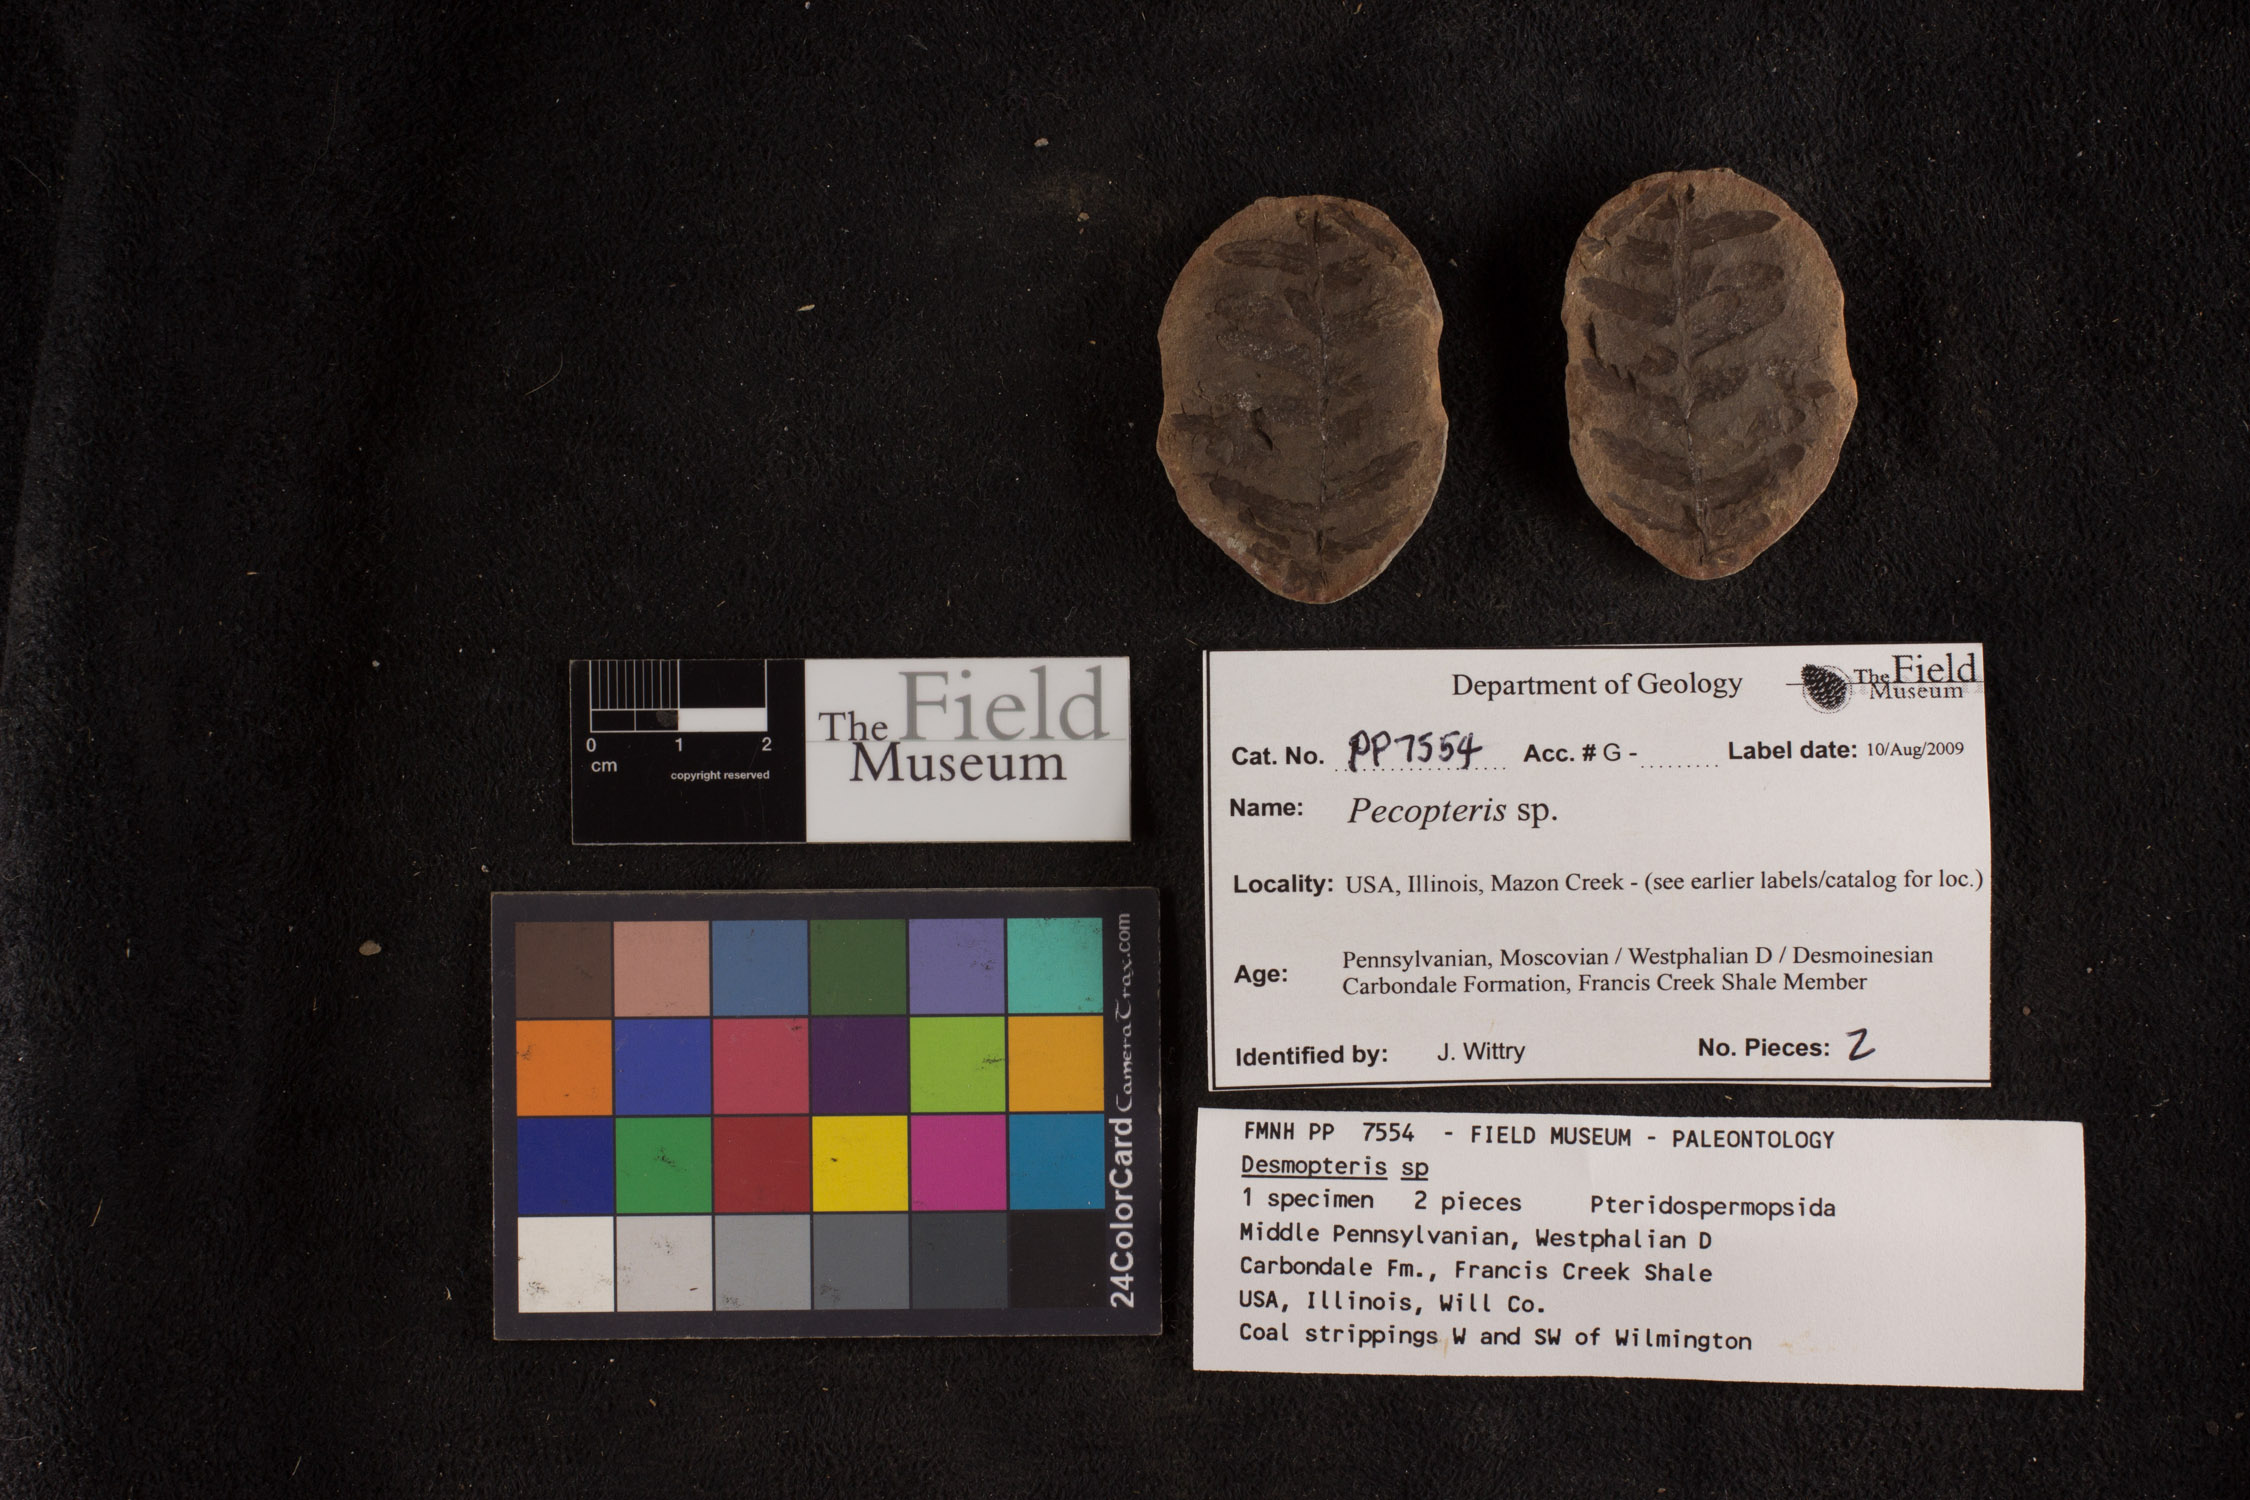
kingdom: Plantae
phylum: Tracheophyta
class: Polypodiopsida
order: Marattiales
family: Asterothecaceae
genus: Pecopteris
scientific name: Pecopteris
